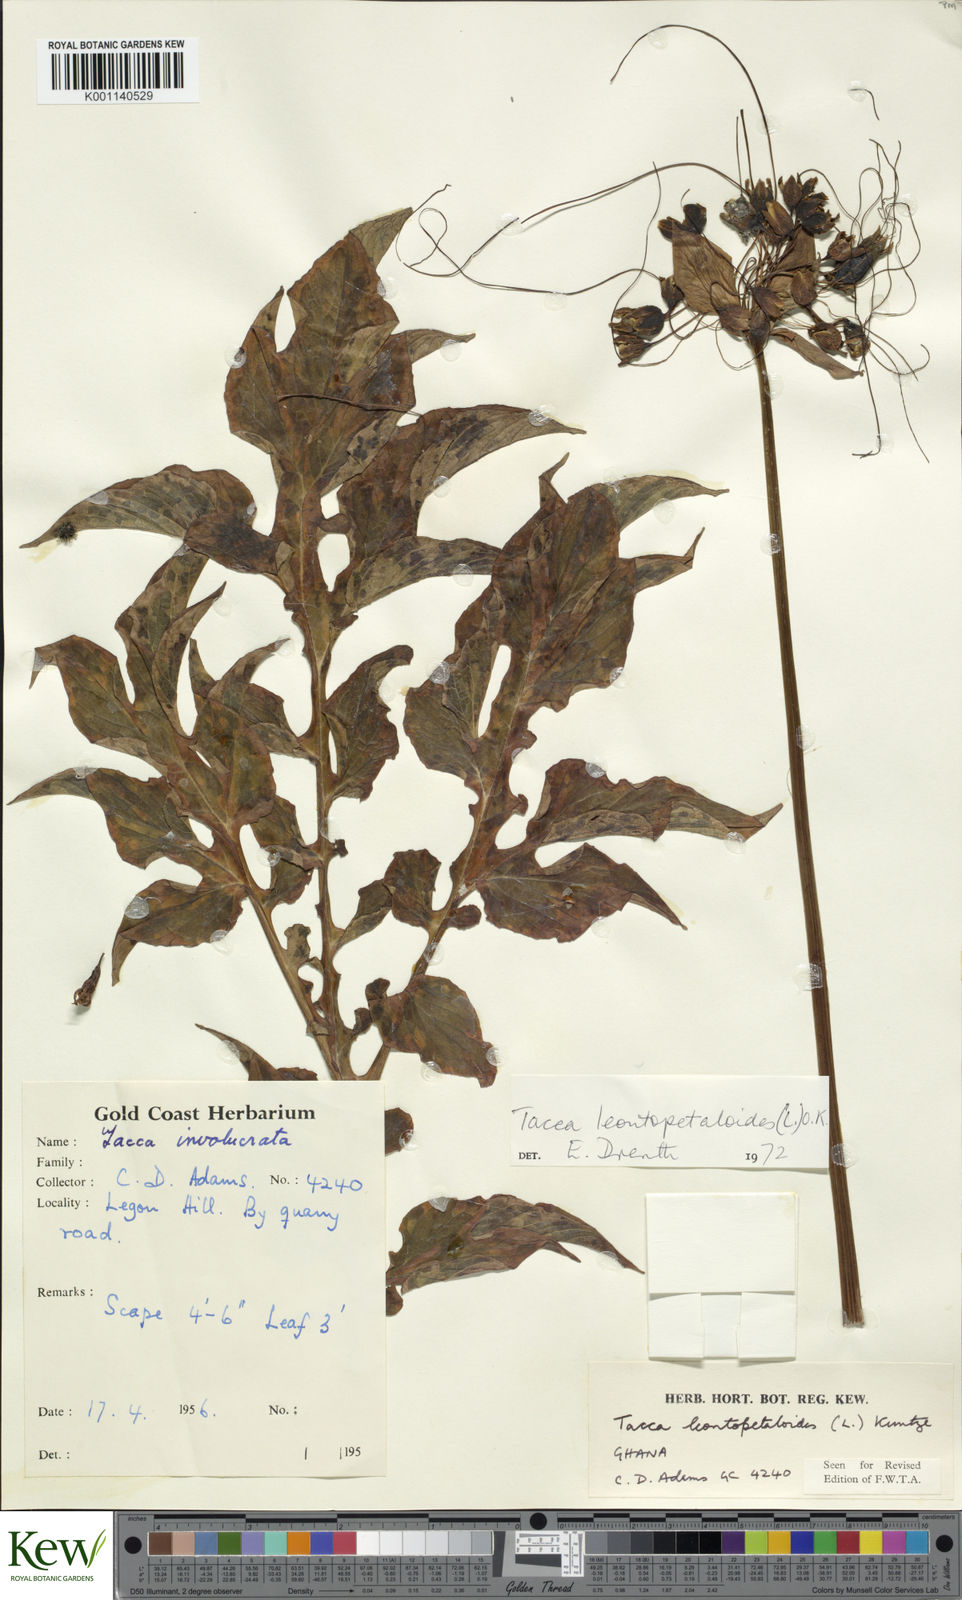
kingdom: Plantae
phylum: Tracheophyta
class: Liliopsida
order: Dioscoreales
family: Dioscoreaceae
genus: Tacca
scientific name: Tacca leontopetaloides
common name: Arrowroot
